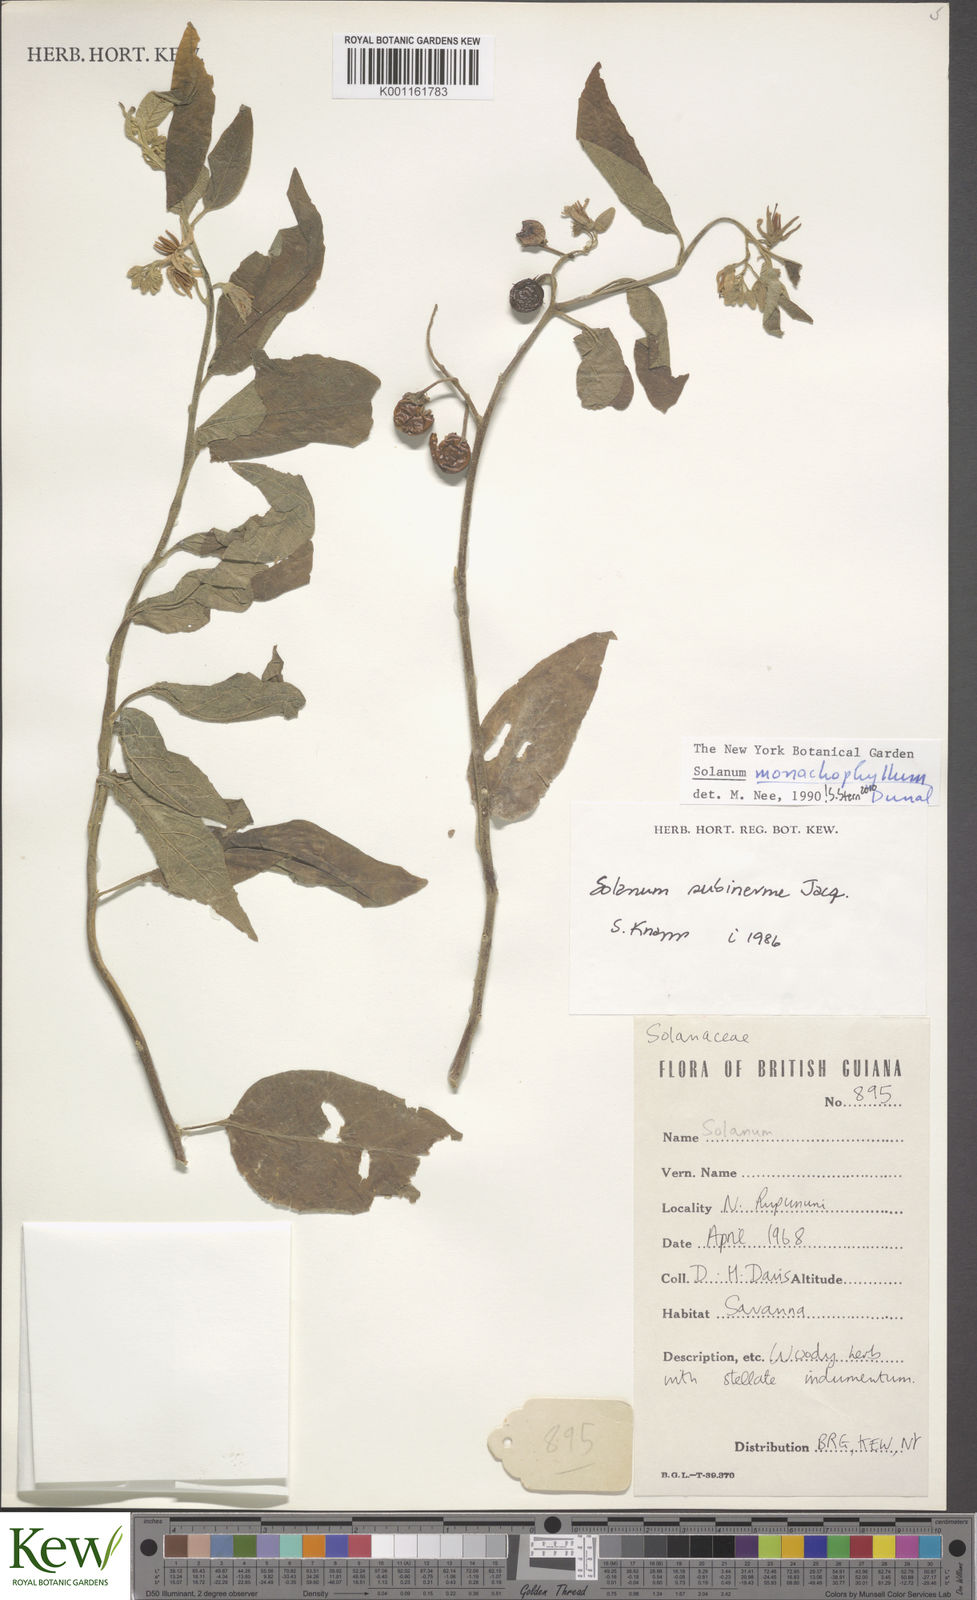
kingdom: Plantae
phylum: Tracheophyta
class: Magnoliopsida
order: Solanales
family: Solanaceae
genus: Solanum
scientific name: Solanum monachophyllum
